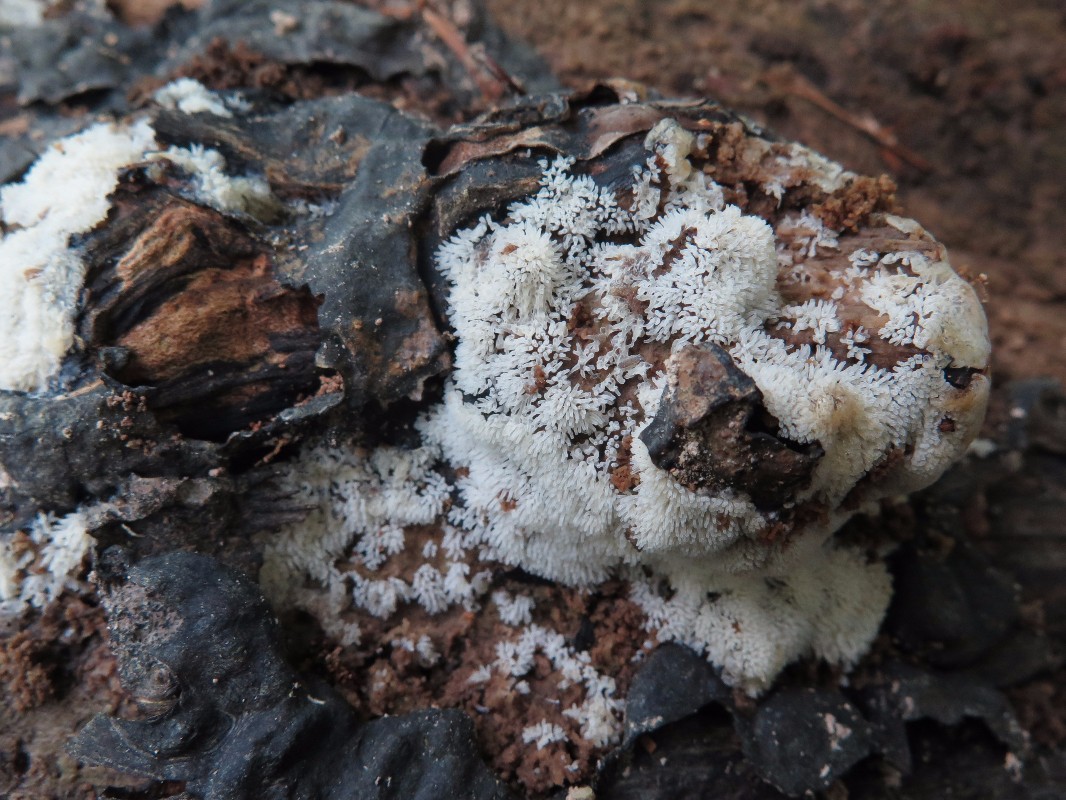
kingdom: Protozoa
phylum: Mycetozoa
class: Protosteliomycetes
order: Ceratiomyxales
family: Ceratiomyxaceae
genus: Ceratiomyxa
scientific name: Ceratiomyxa fruticulosa
